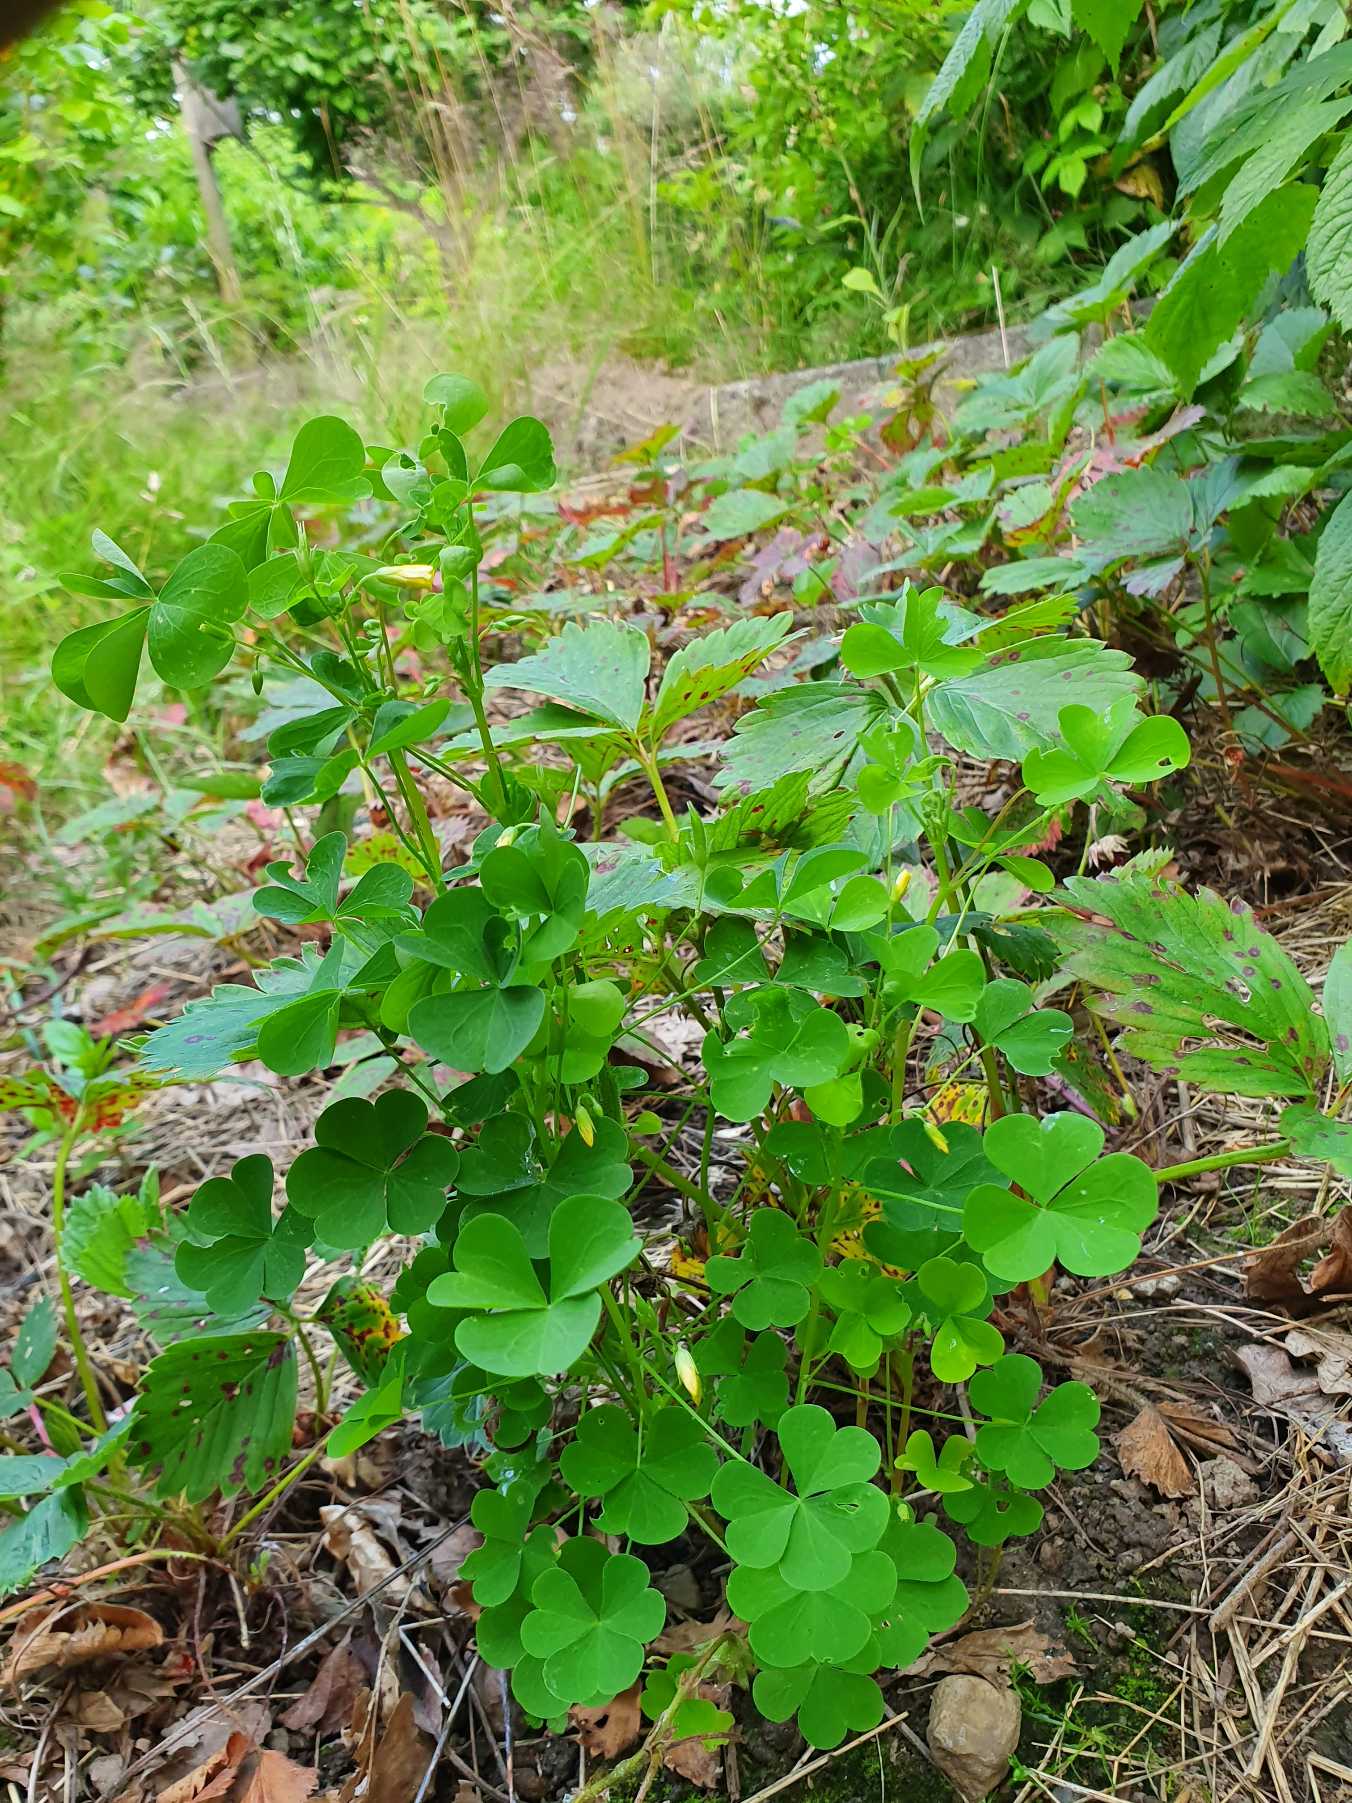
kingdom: Plantae
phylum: Tracheophyta
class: Magnoliopsida
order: Oxalidales
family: Oxalidaceae
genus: Oxalis
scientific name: Oxalis stricta
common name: Rank surkløver
